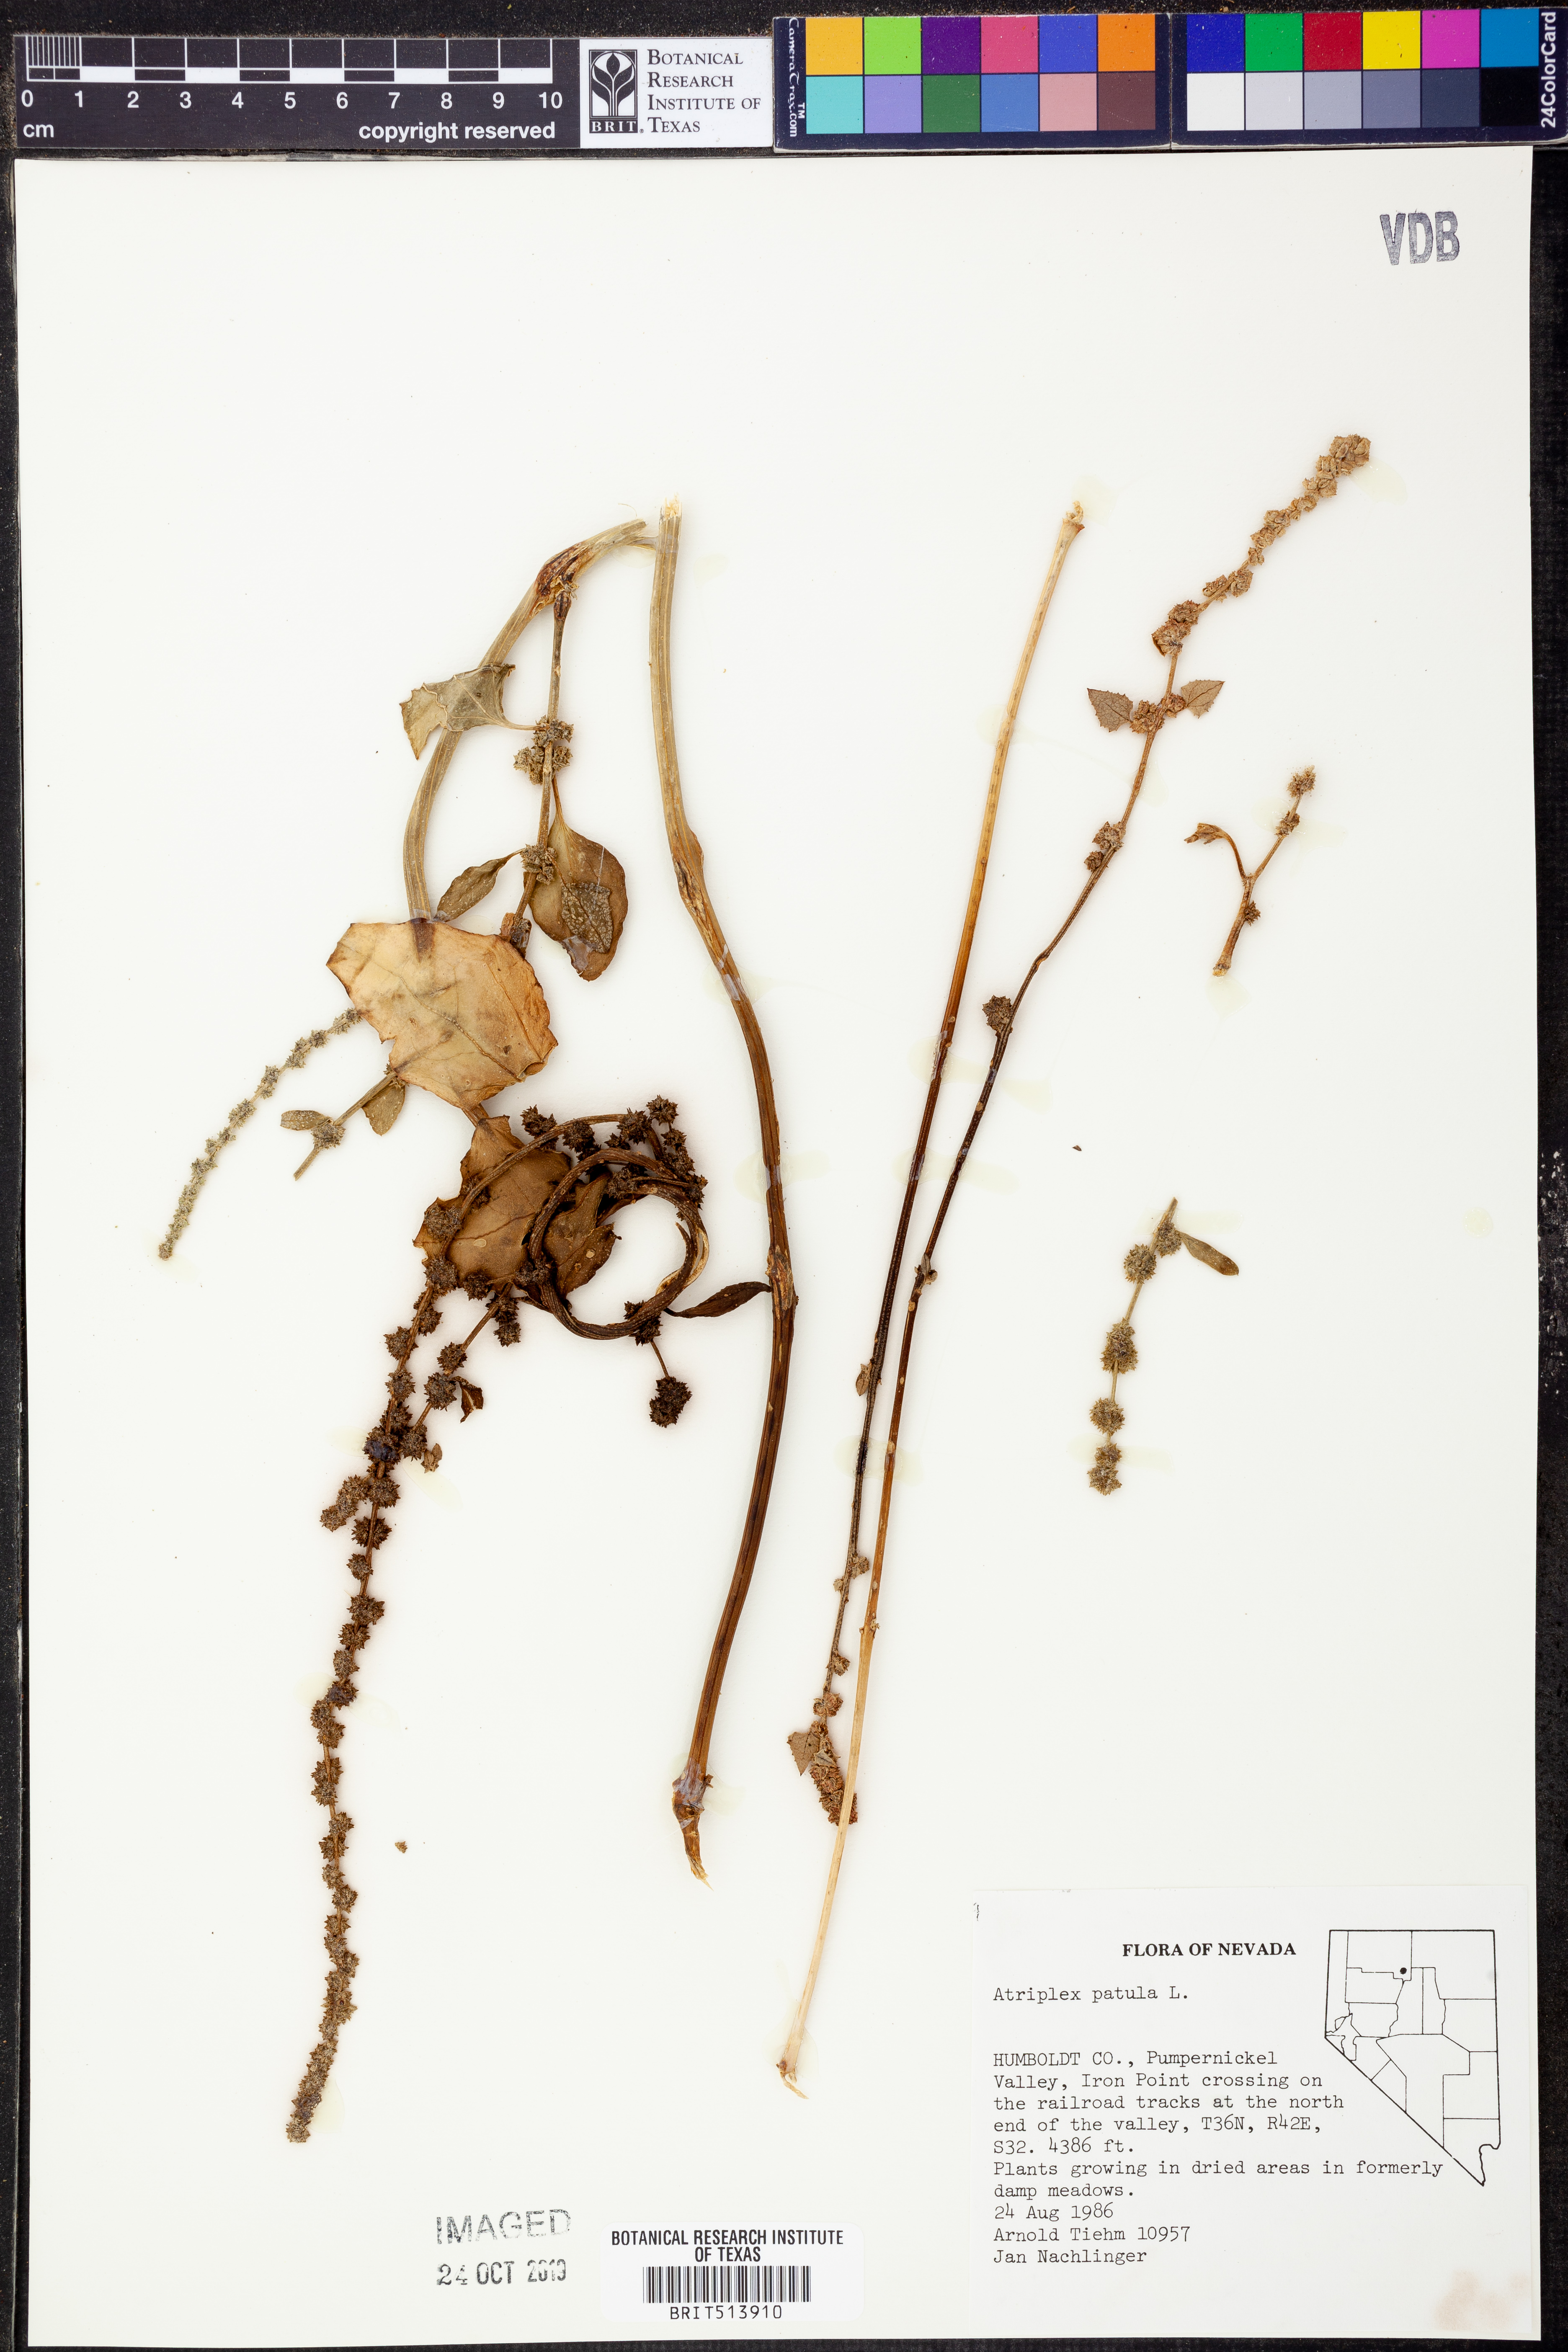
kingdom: Plantae
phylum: Tracheophyta
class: Magnoliopsida
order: Caryophyllales
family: Amaranthaceae
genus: Atriplex
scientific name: Atriplex patula
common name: Common orache
